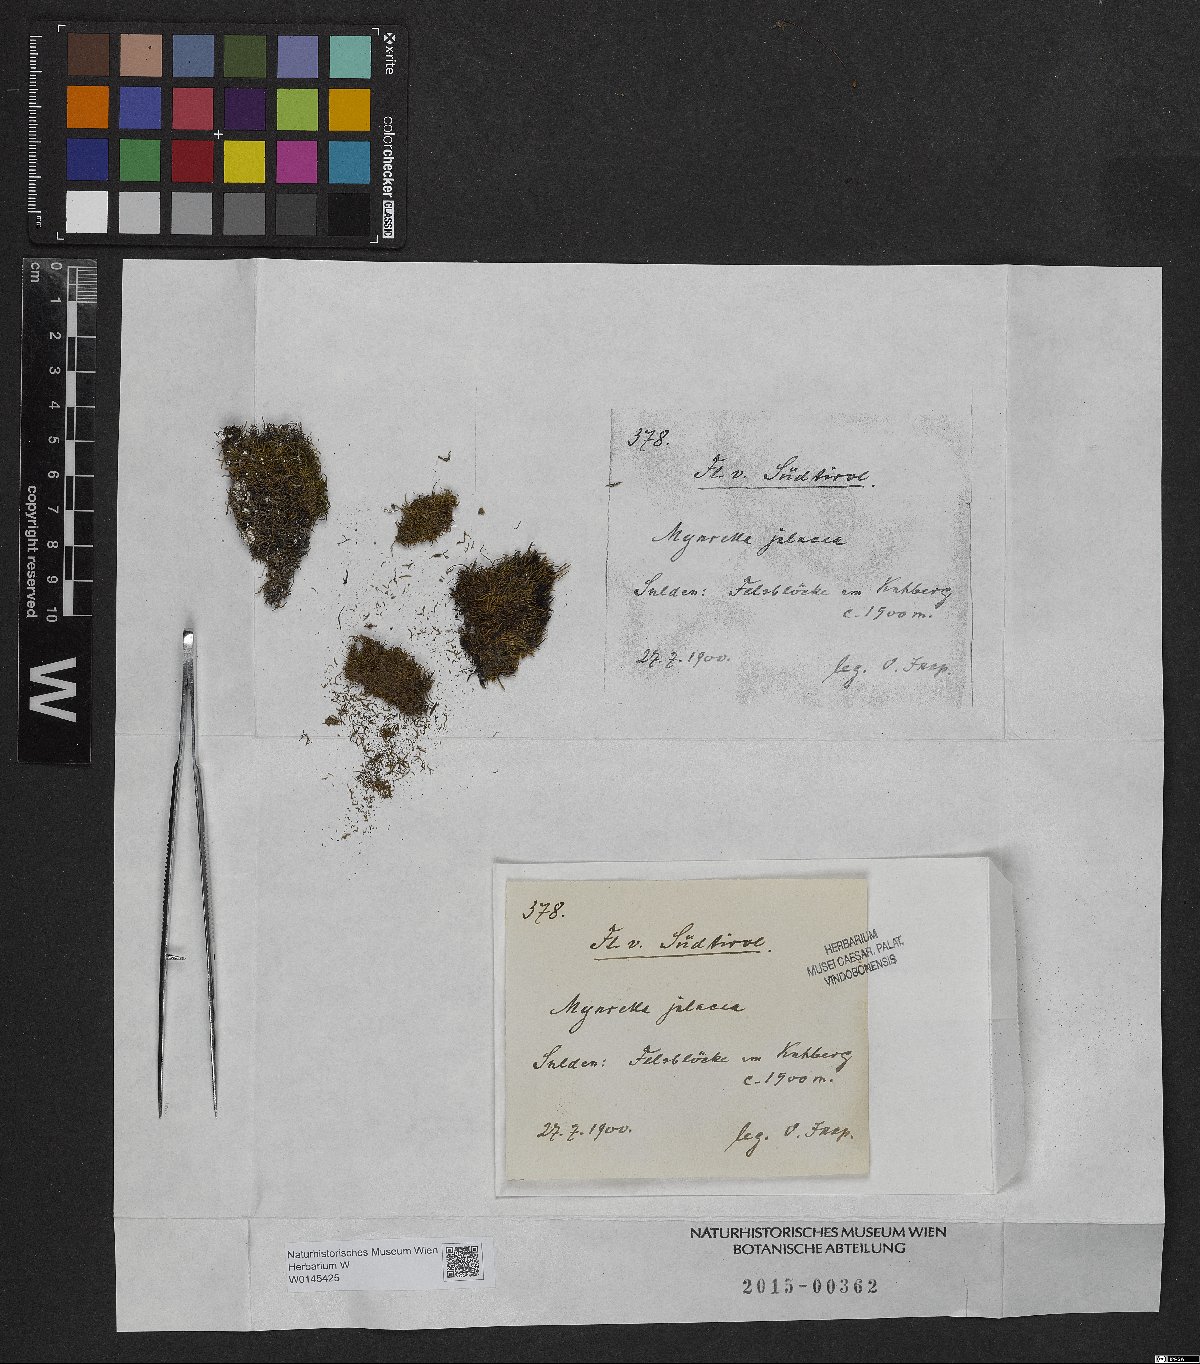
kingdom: Plantae
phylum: Bryophyta
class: Bryopsida
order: Hypnales
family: Plagiotheciaceae
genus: Myurella
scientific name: Myurella julacea
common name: Small mousetail moss
